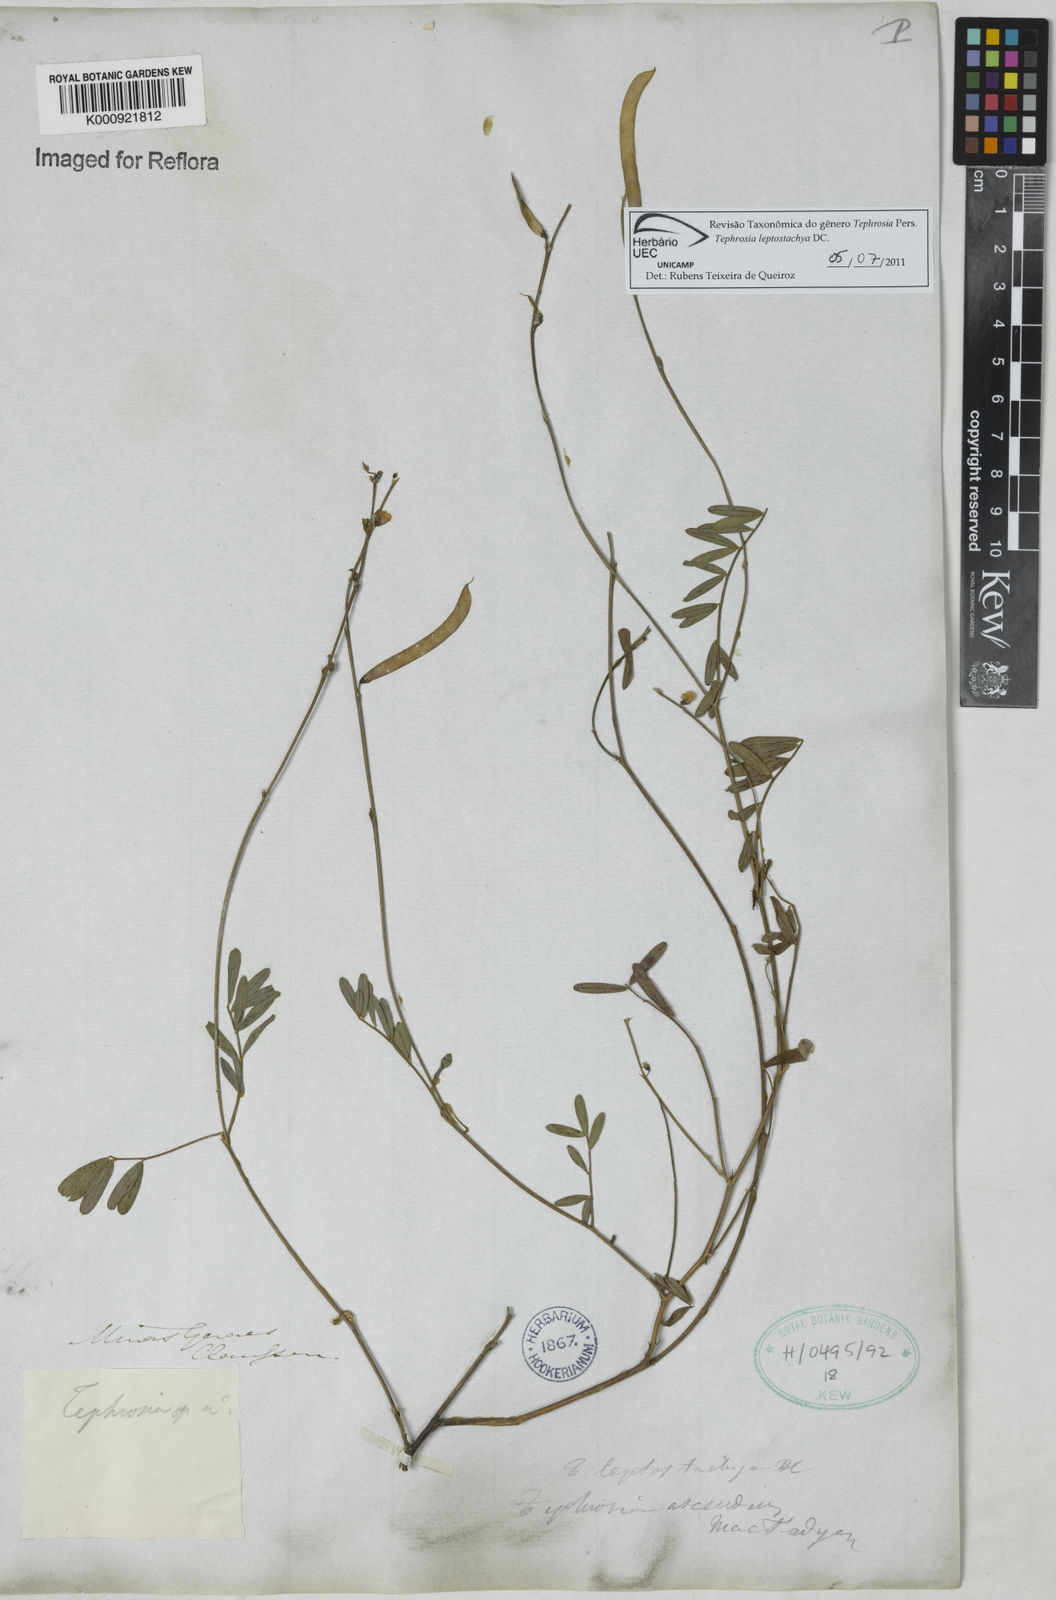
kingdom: Plantae
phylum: Tracheophyta
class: Magnoliopsida
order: Fabales
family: Fabaceae
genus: Tephrosia
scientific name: Tephrosia purpurea
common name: Fishpoison
